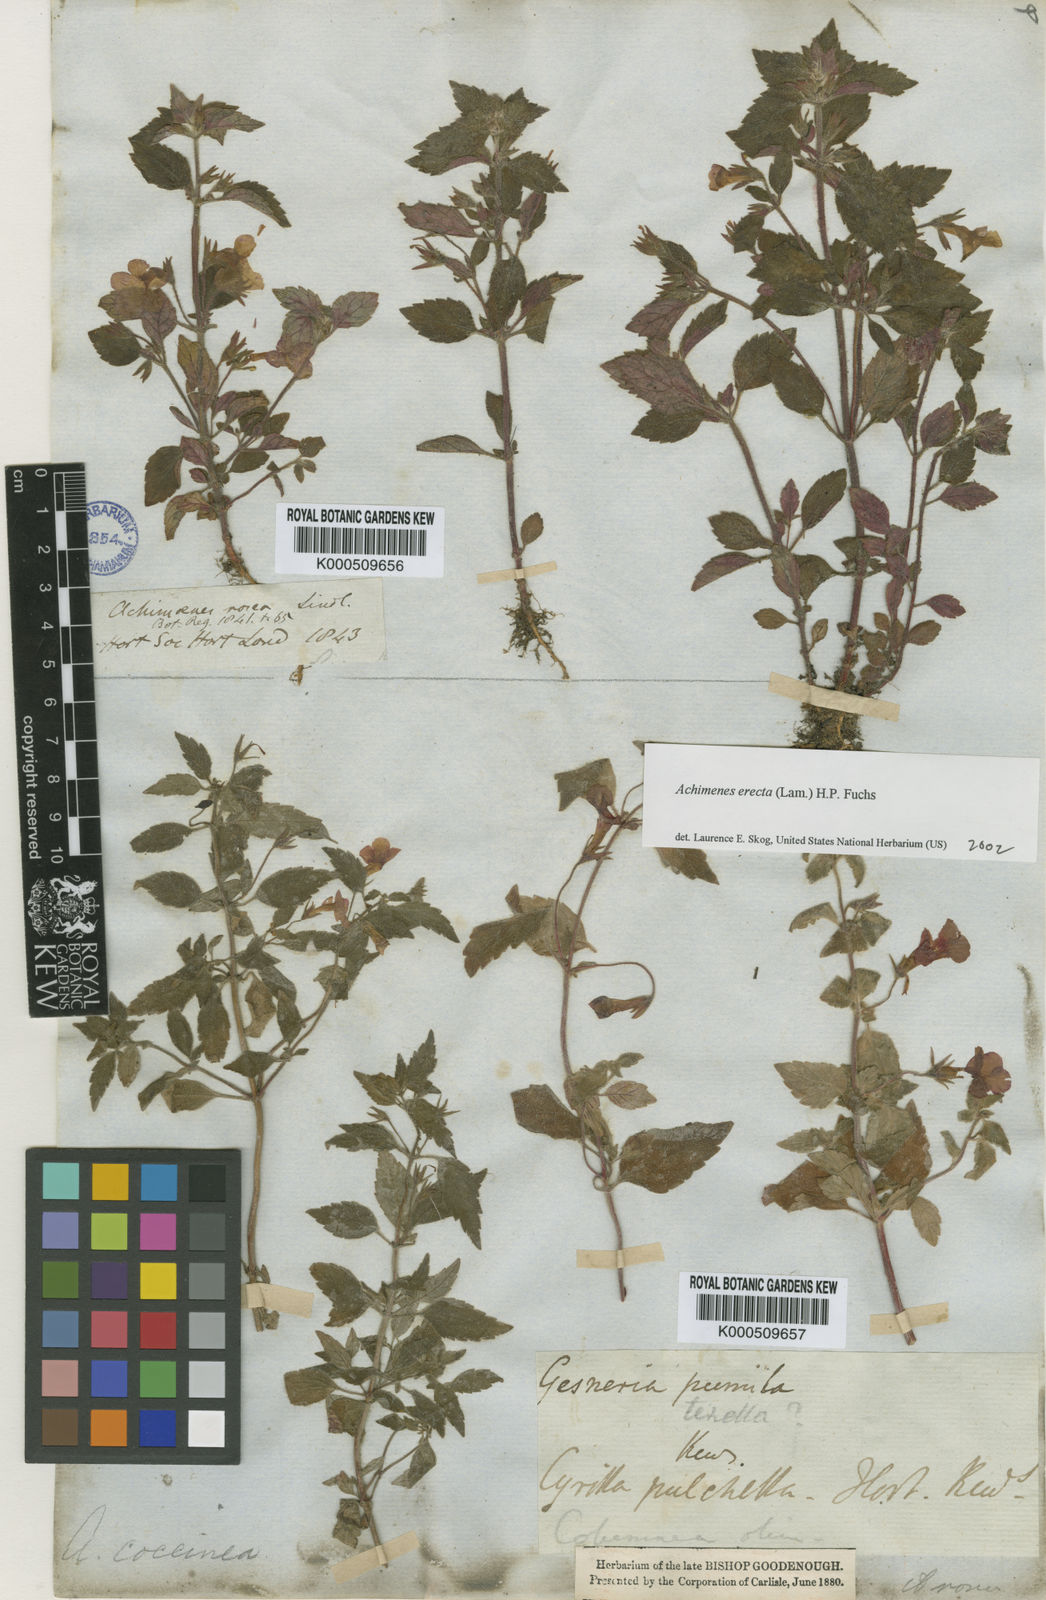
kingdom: Plantae
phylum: Tracheophyta
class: Magnoliopsida
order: Lamiales
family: Gesneriaceae
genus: Achimenes
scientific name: Achimenes erecta
